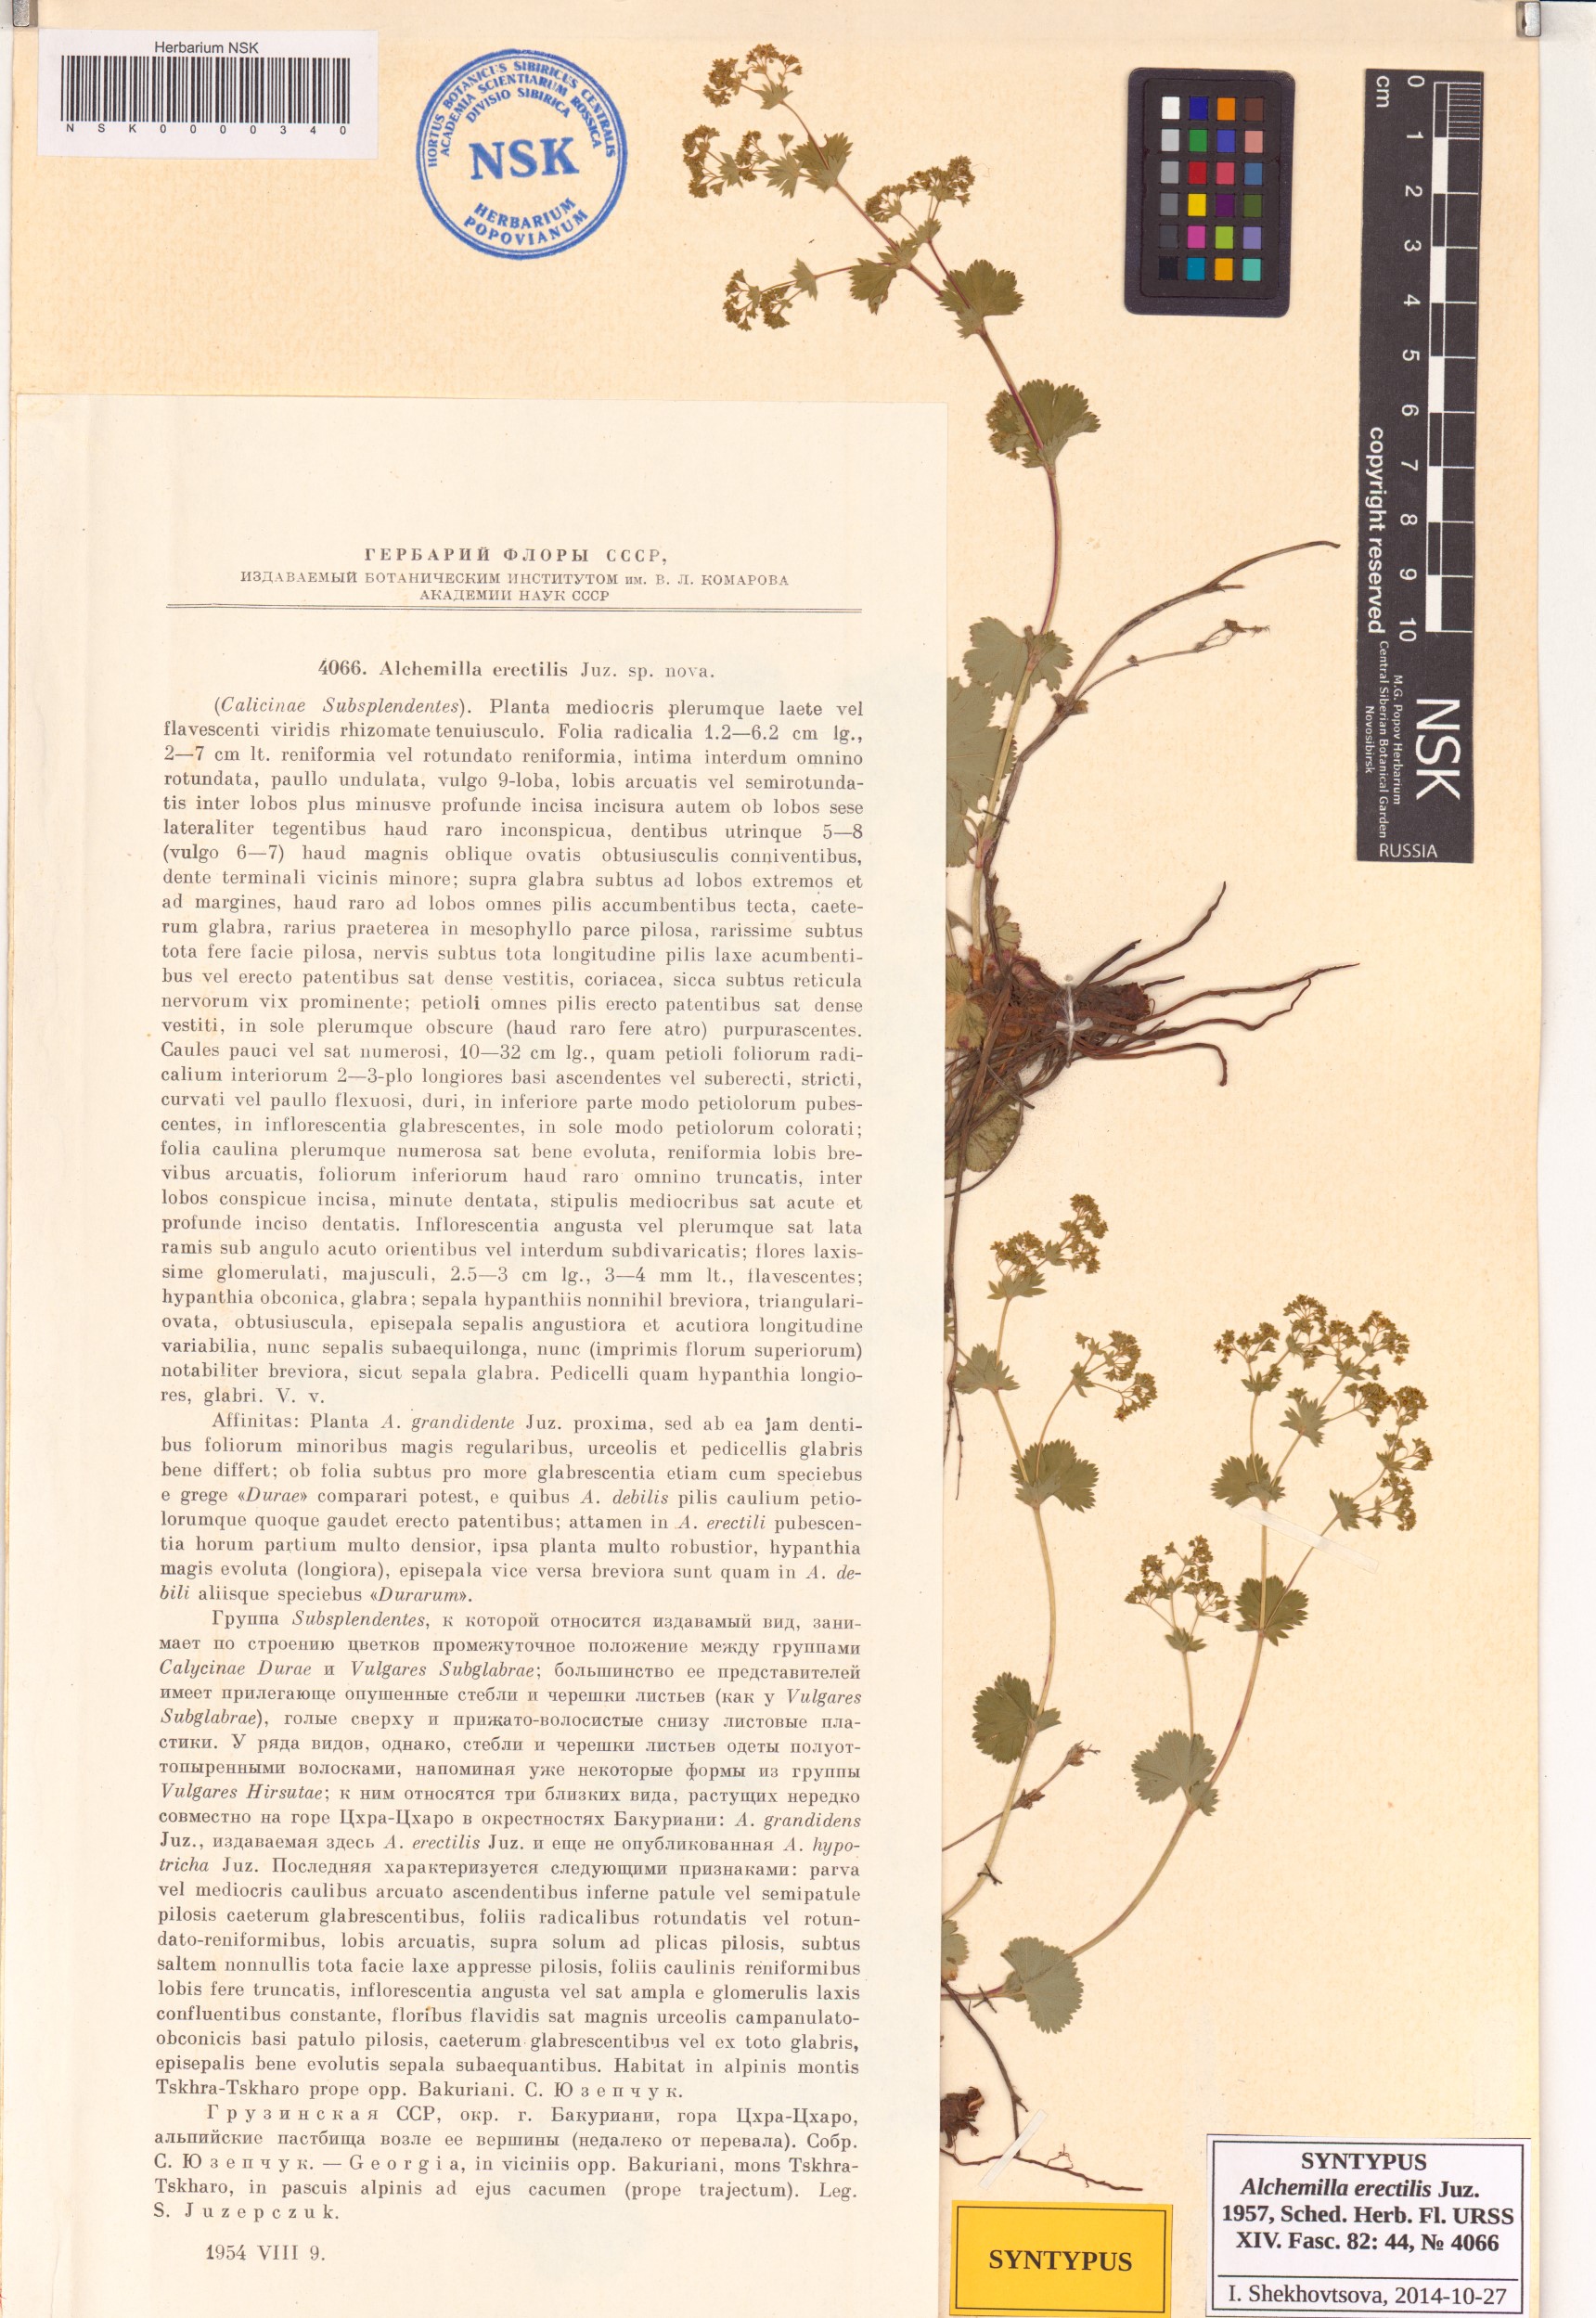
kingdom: Plantae
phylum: Tracheophyta
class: Magnoliopsida
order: Rosales
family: Rosaceae
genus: Alchemilla
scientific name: Alchemilla erectilis
